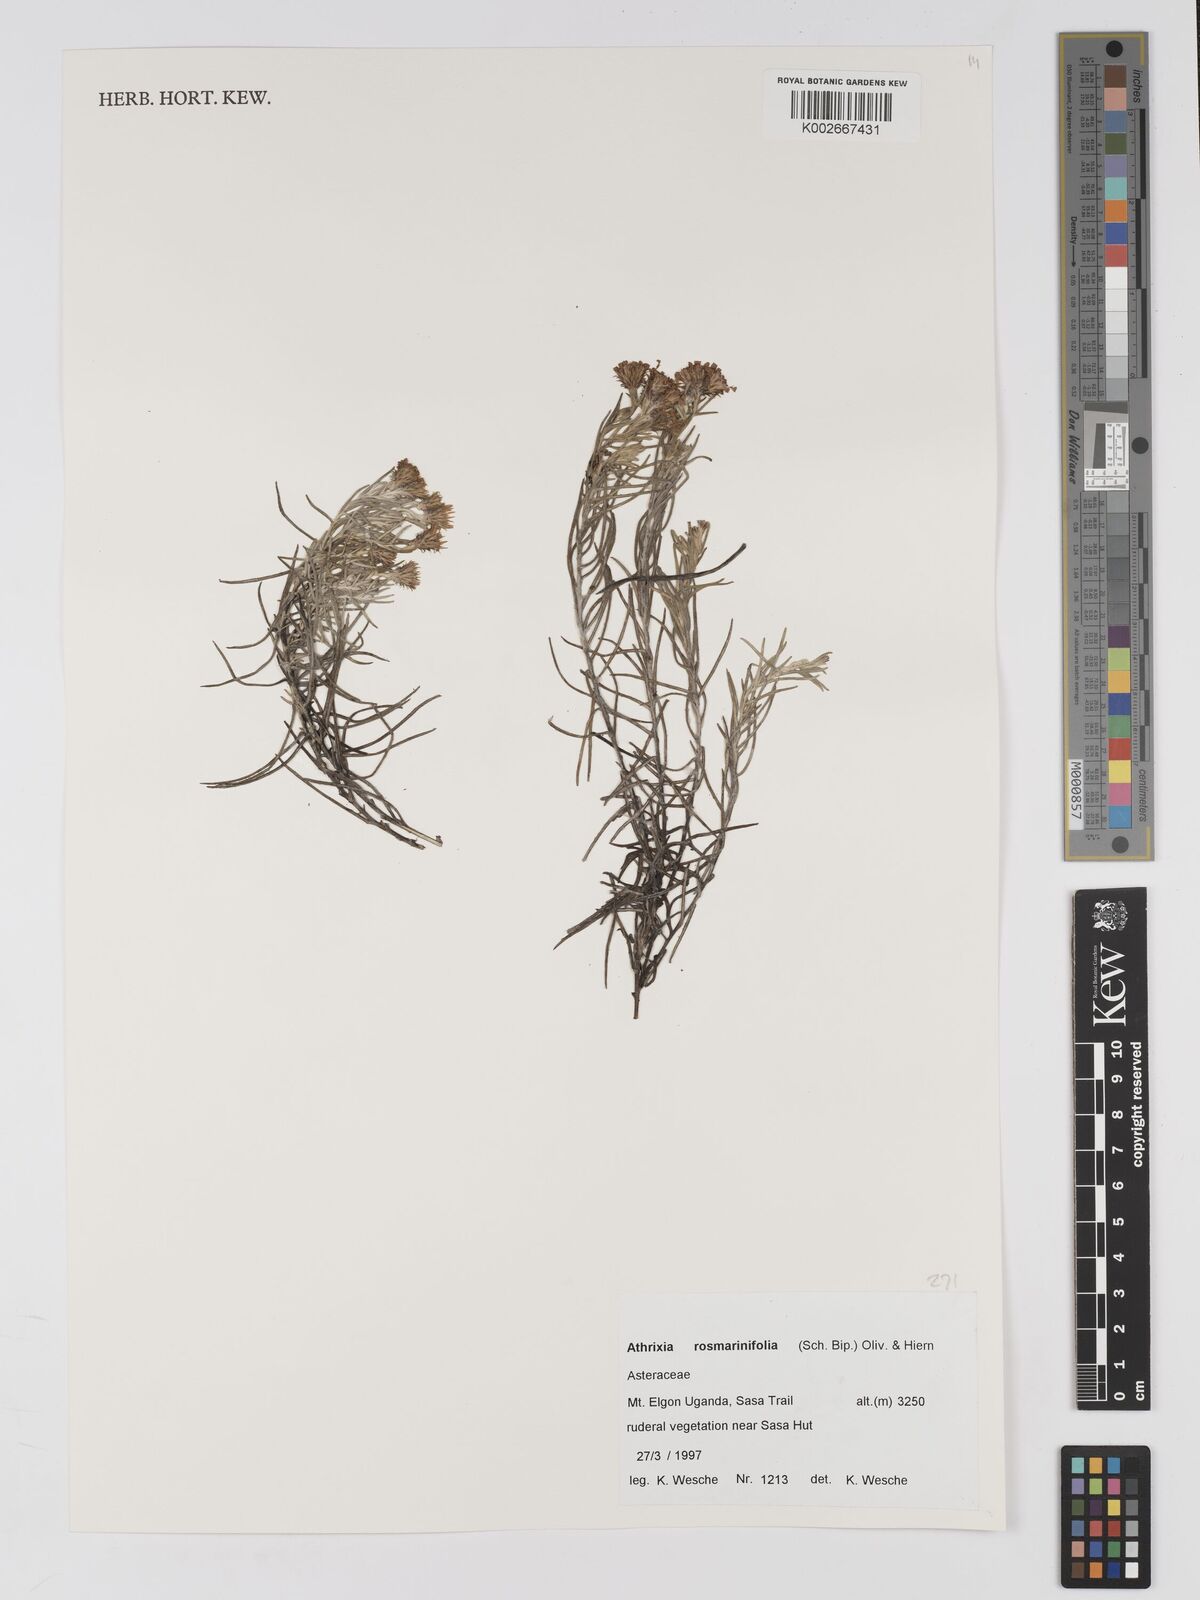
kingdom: Plantae
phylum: Tracheophyta
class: Magnoliopsida
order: Asterales
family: Asteraceae
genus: Athrixia
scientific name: Athrixia rosmarinifolia
